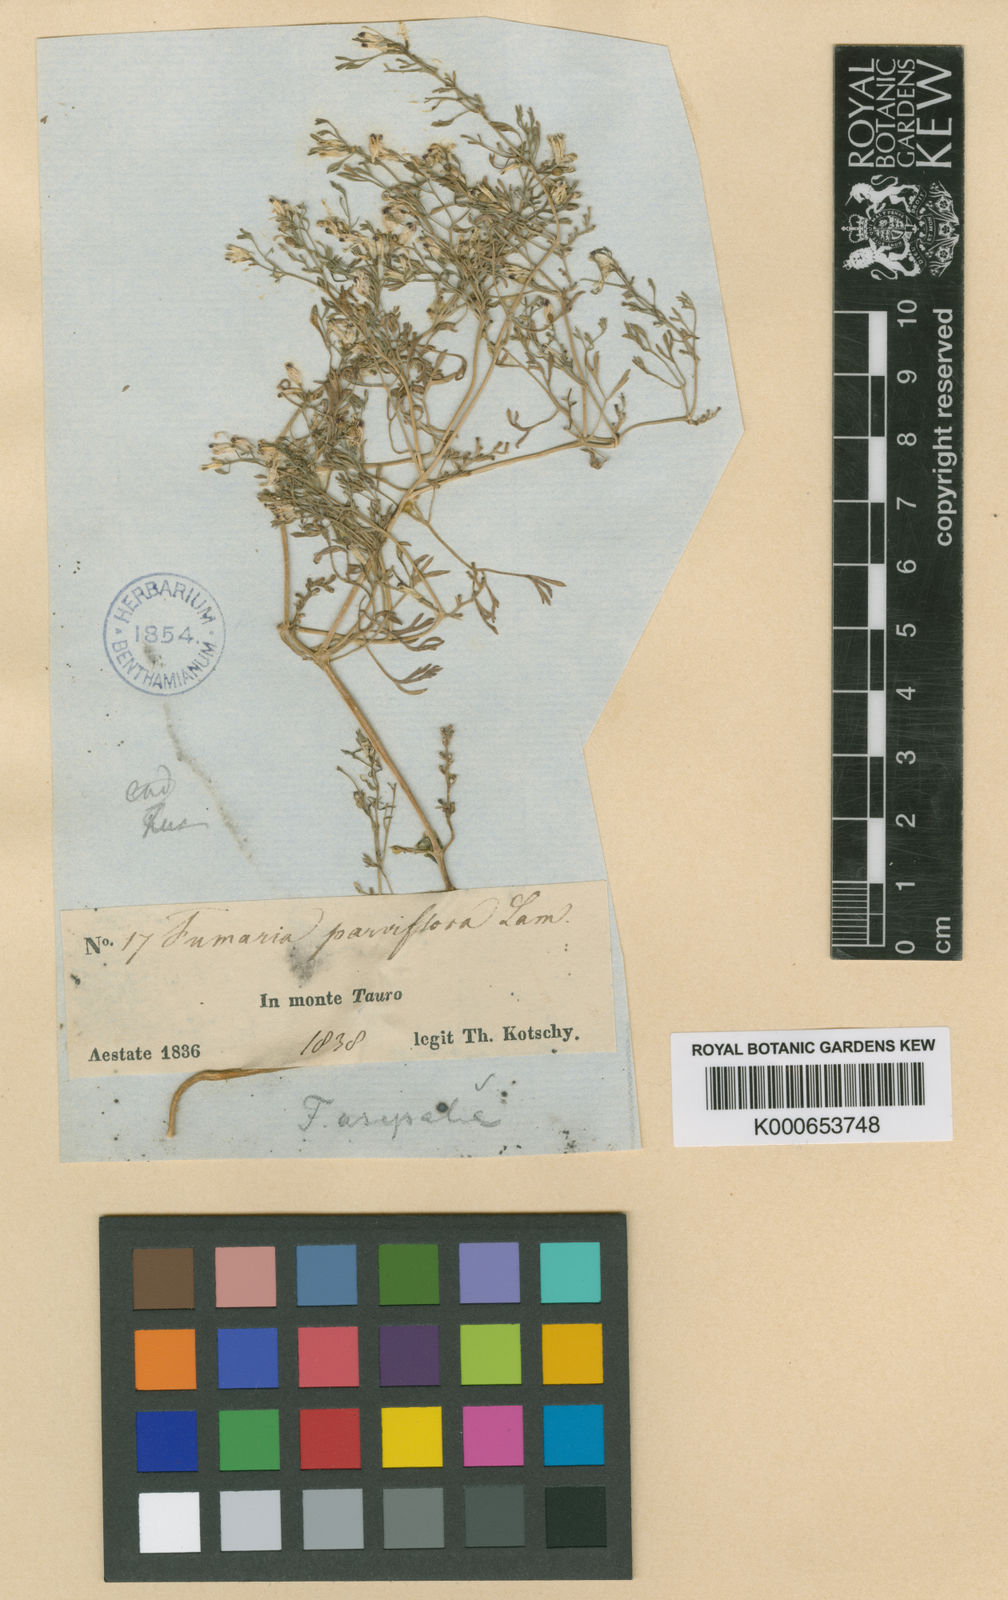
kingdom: Plantae
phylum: Tracheophyta
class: Magnoliopsida
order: Ranunculales
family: Papaveraceae
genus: Fumaria
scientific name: Fumaria asepala
